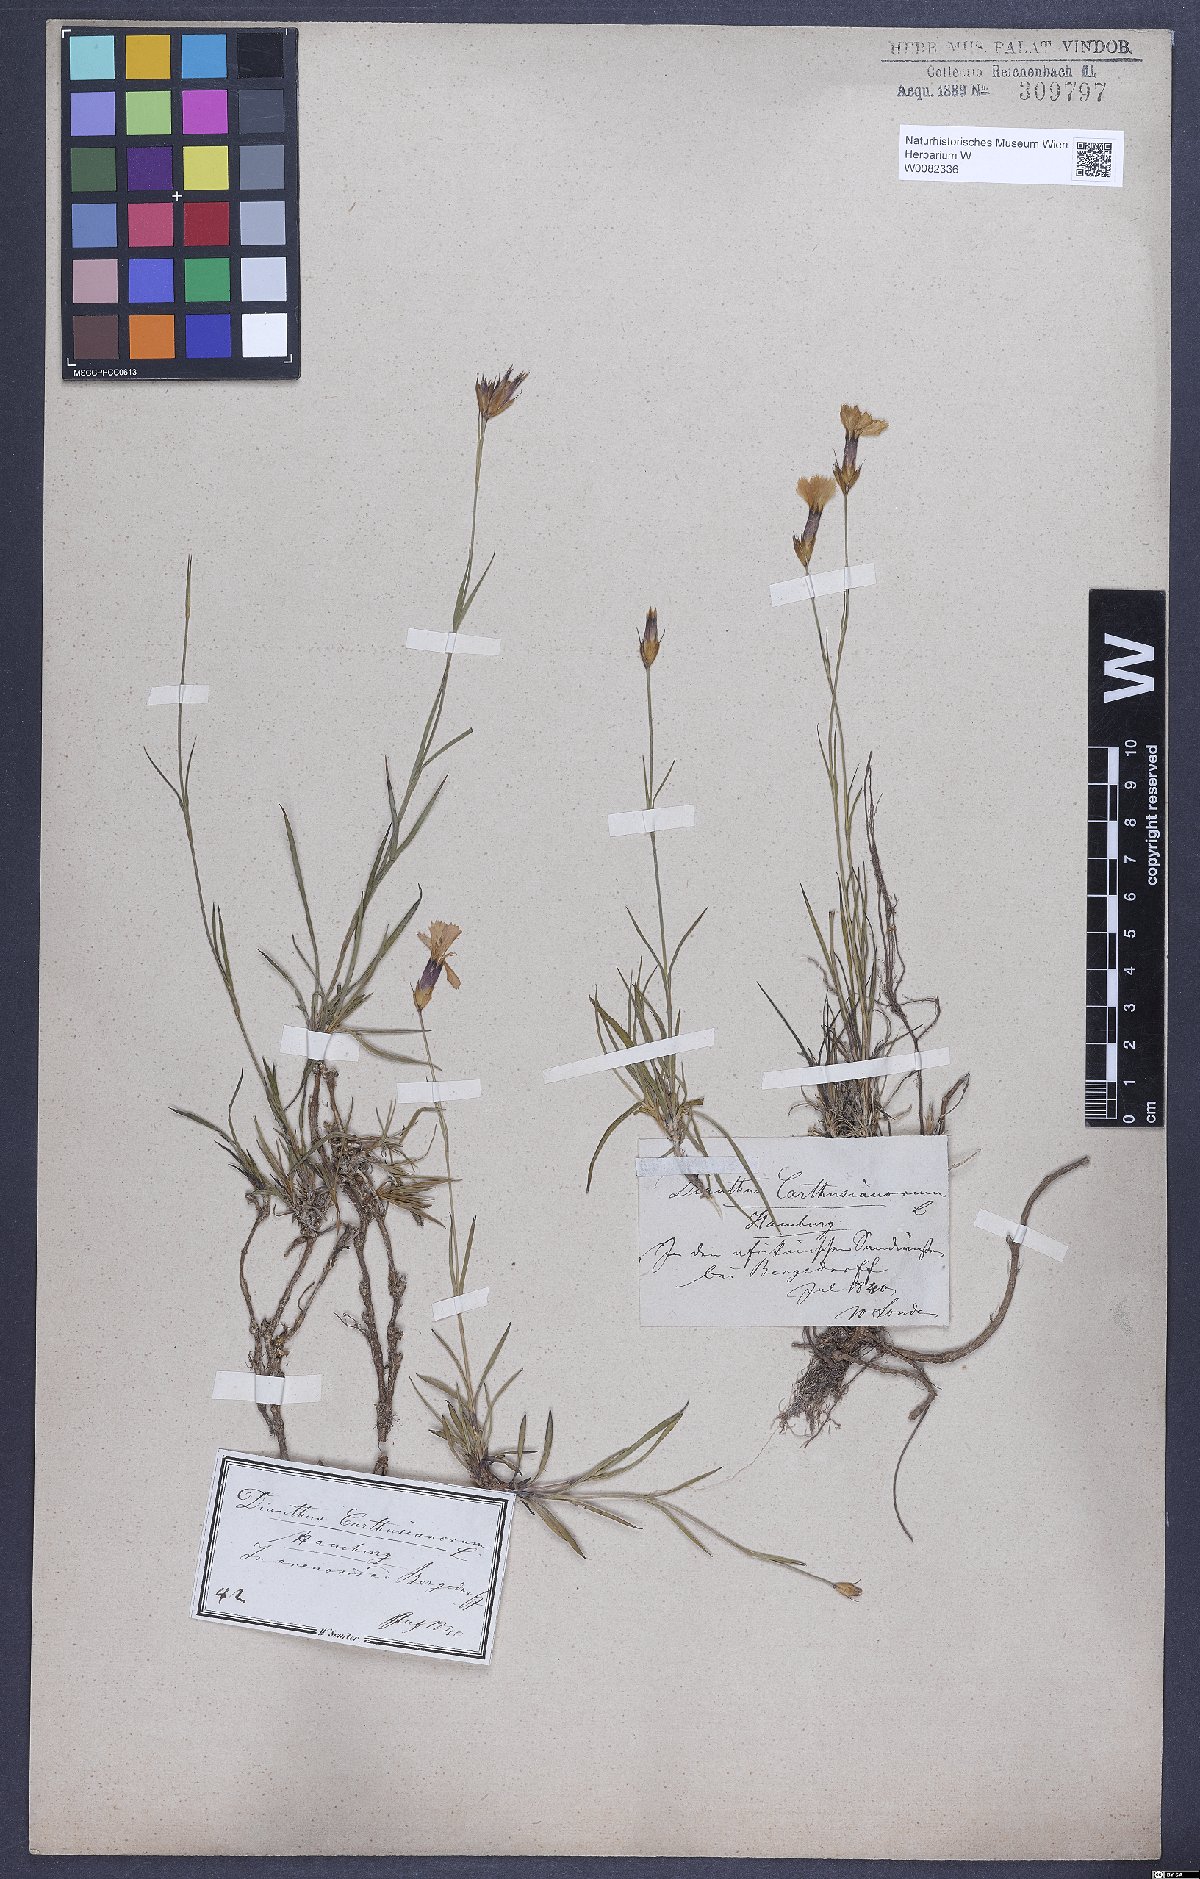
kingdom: Plantae
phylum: Tracheophyta
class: Magnoliopsida
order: Caryophyllales
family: Caryophyllaceae
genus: Dianthus
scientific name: Dianthus carthusianorum
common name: Carthusian pink
